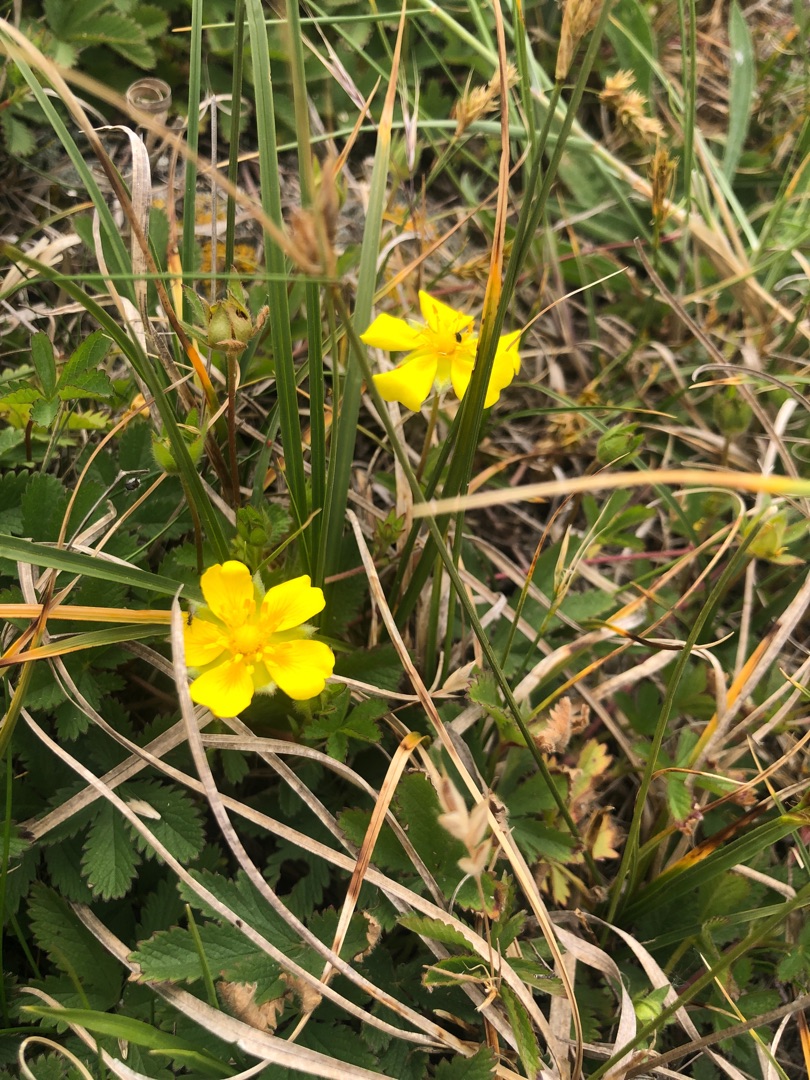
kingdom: Plantae
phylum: Tracheophyta
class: Magnoliopsida
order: Rosales
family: Rosaceae
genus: Potentilla
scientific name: Potentilla reptans
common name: Krybende potentil
